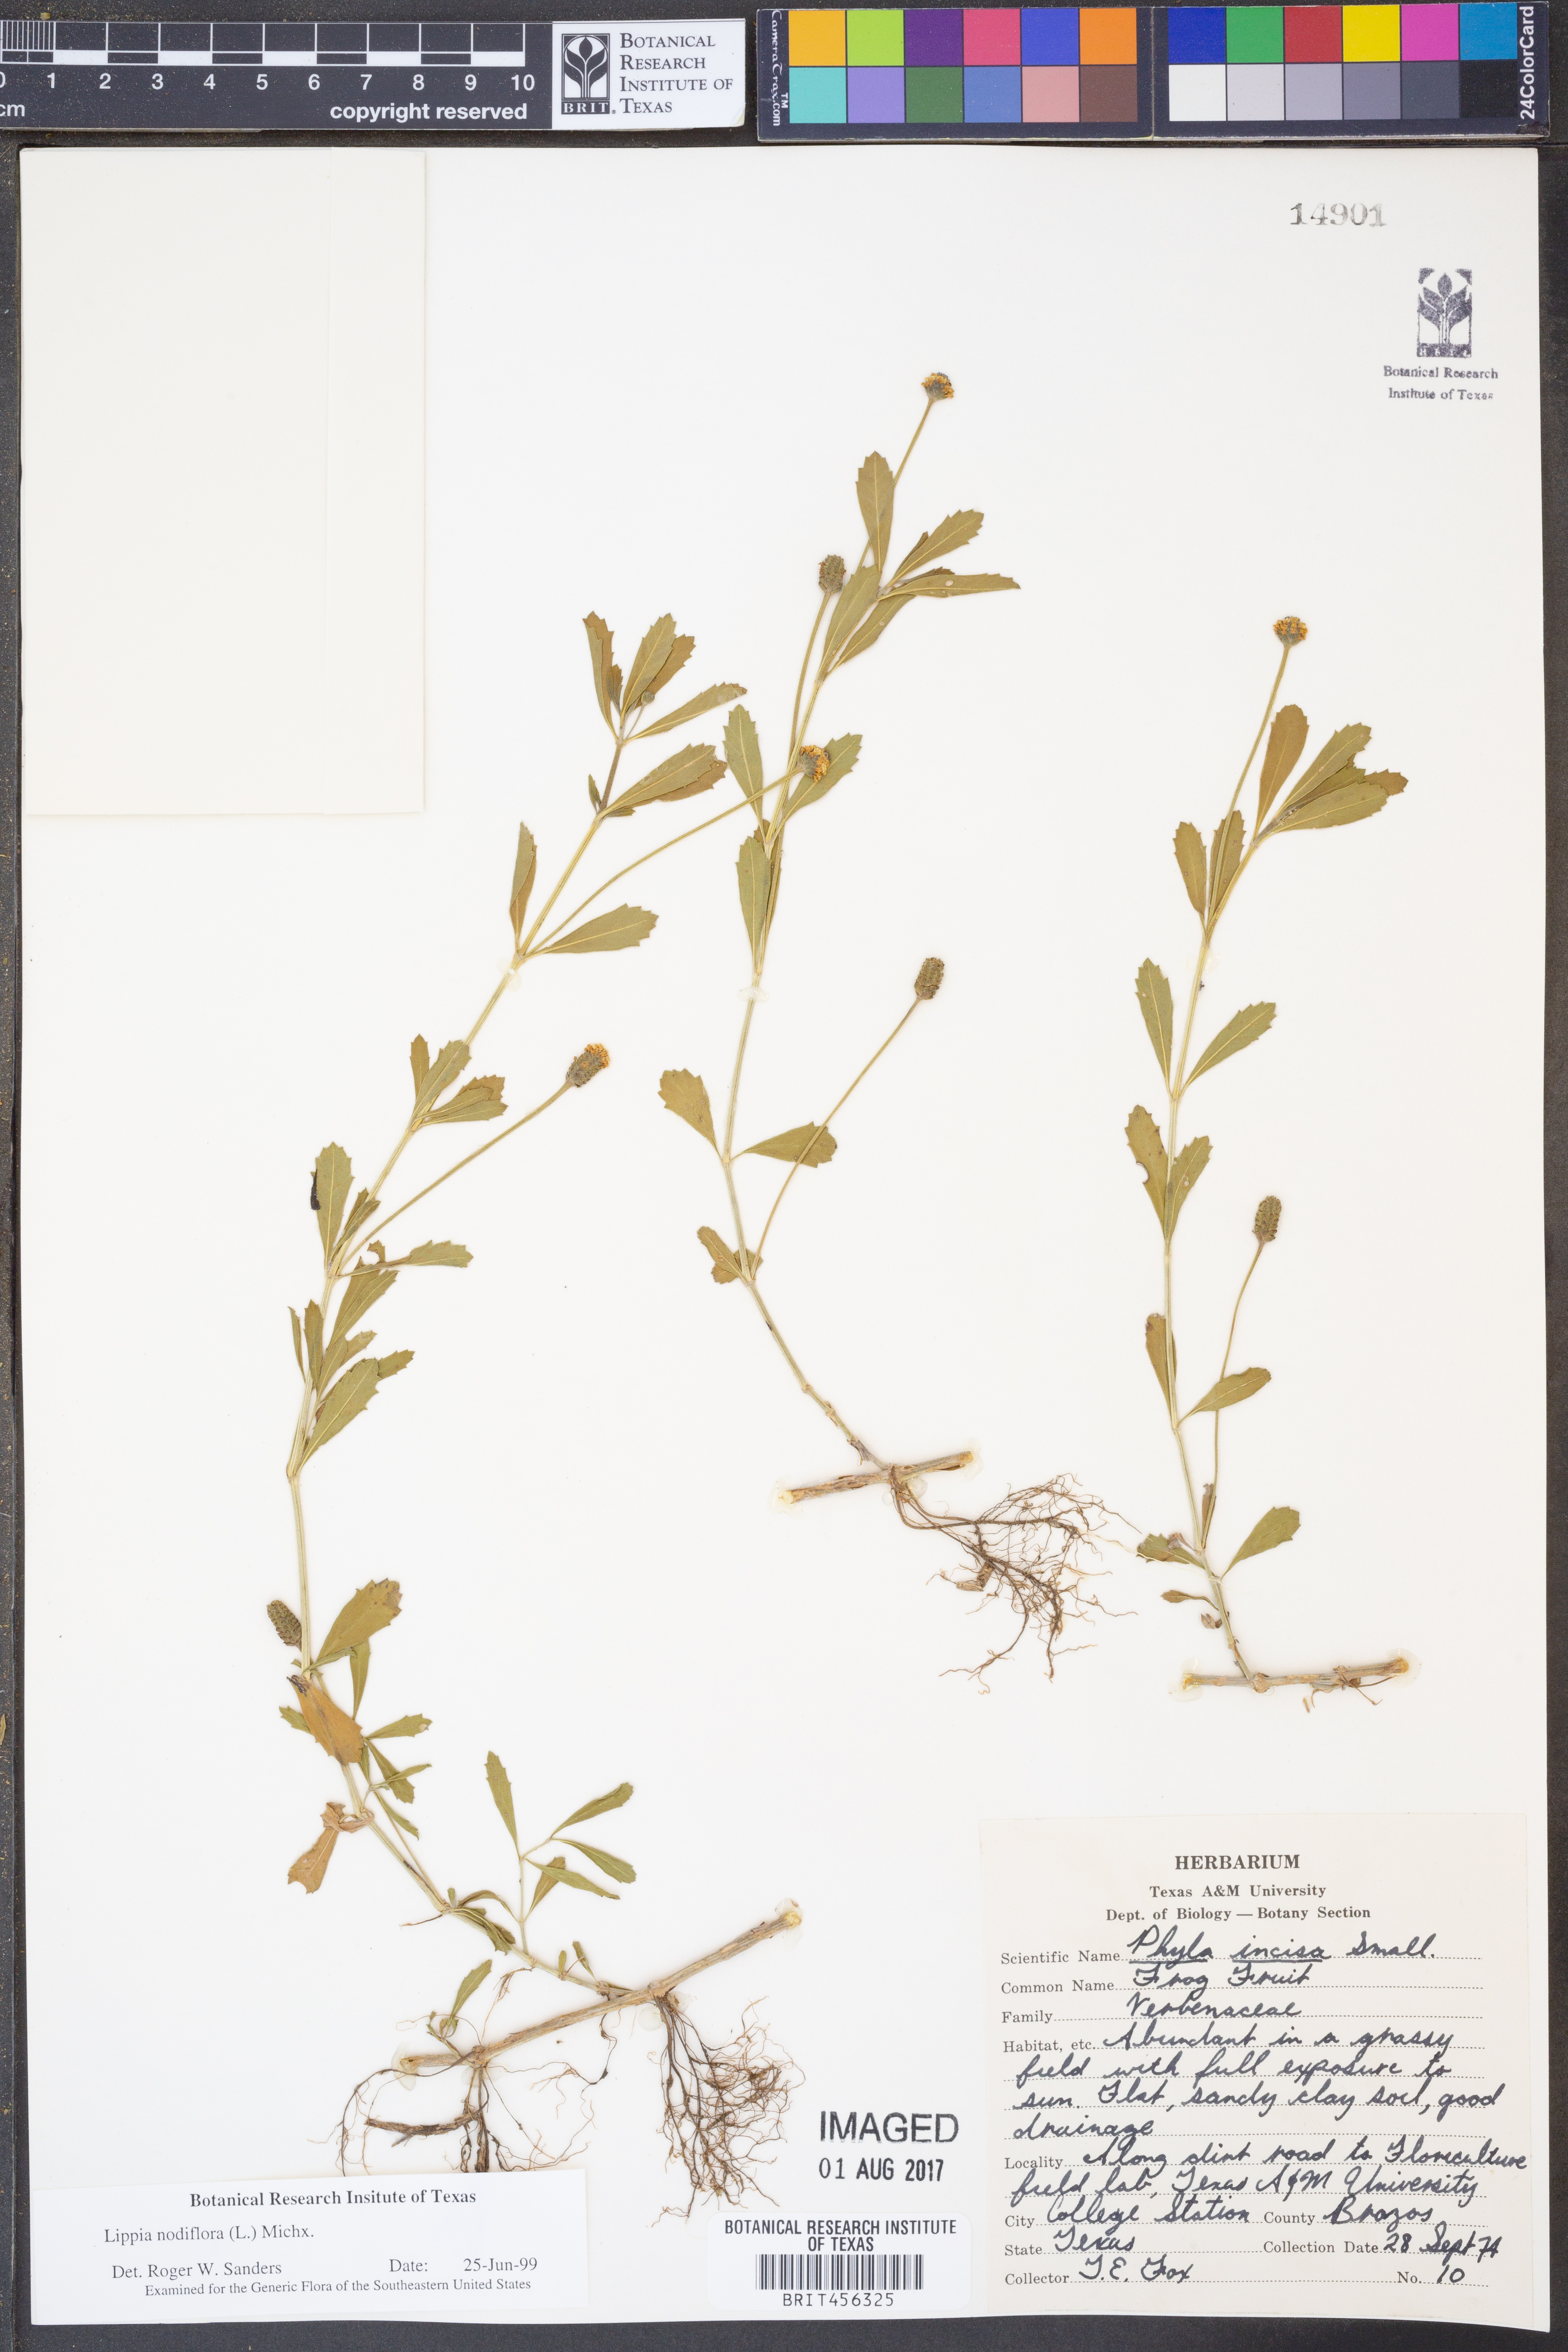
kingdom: Plantae
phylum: Tracheophyta
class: Magnoliopsida
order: Lamiales
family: Verbenaceae
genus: Phyla
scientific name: Phyla nodiflora
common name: Frogfruit
